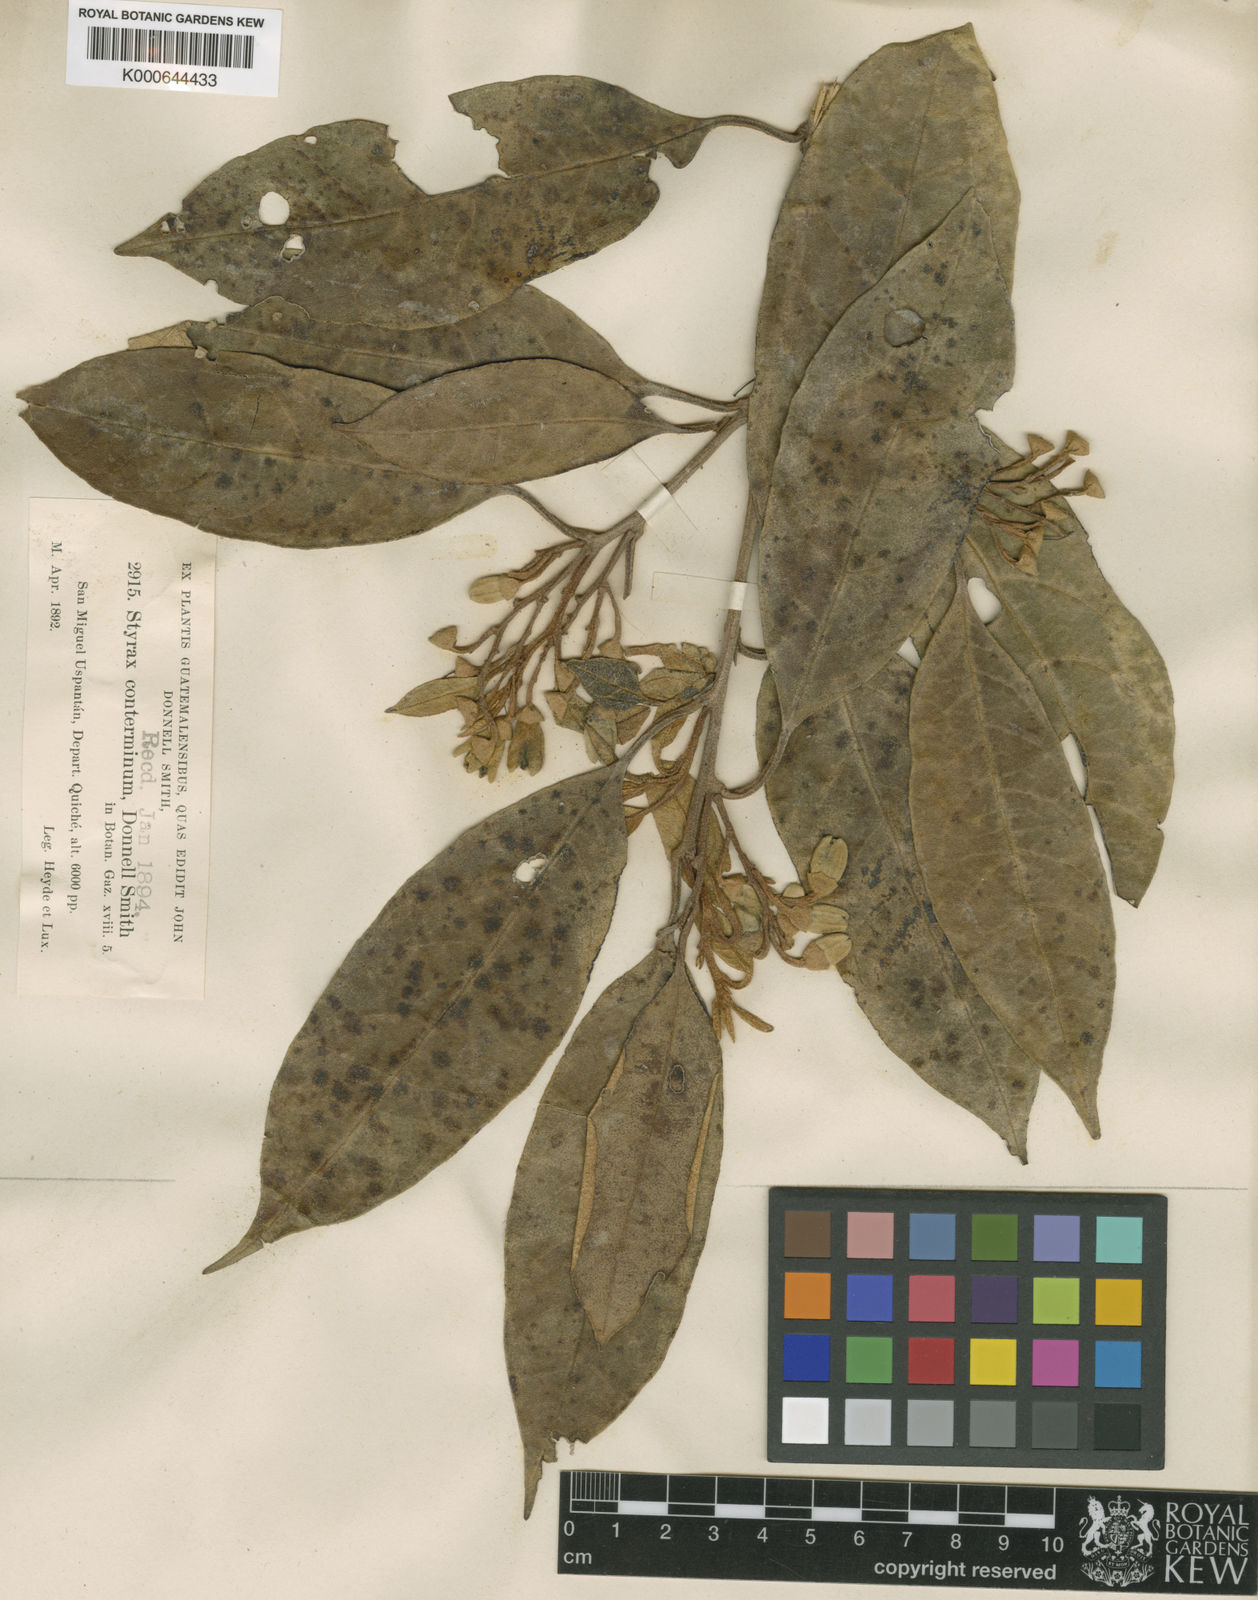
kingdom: Plantae
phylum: Tracheophyta
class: Magnoliopsida
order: Ericales
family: Styracaceae
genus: Styrax
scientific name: Styrax conterminus
